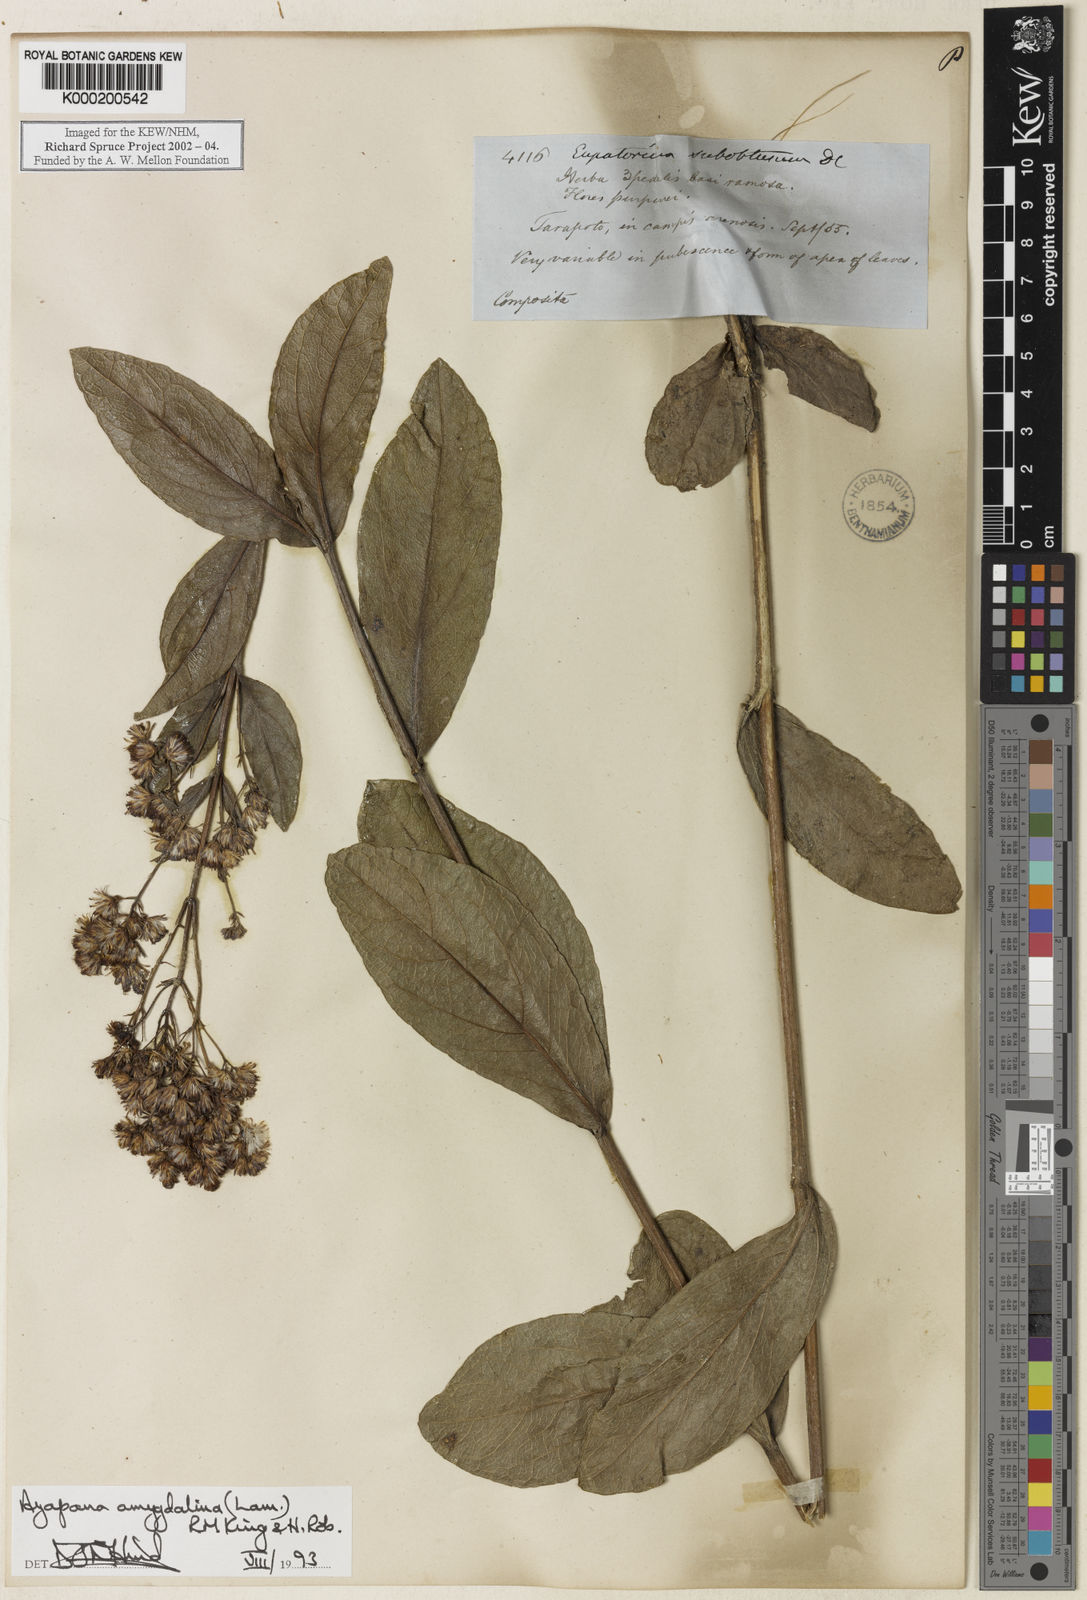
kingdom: Plantae
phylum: Tracheophyta
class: Magnoliopsida
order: Asterales
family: Asteraceae
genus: Ayapana
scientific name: Ayapana amygdalina
